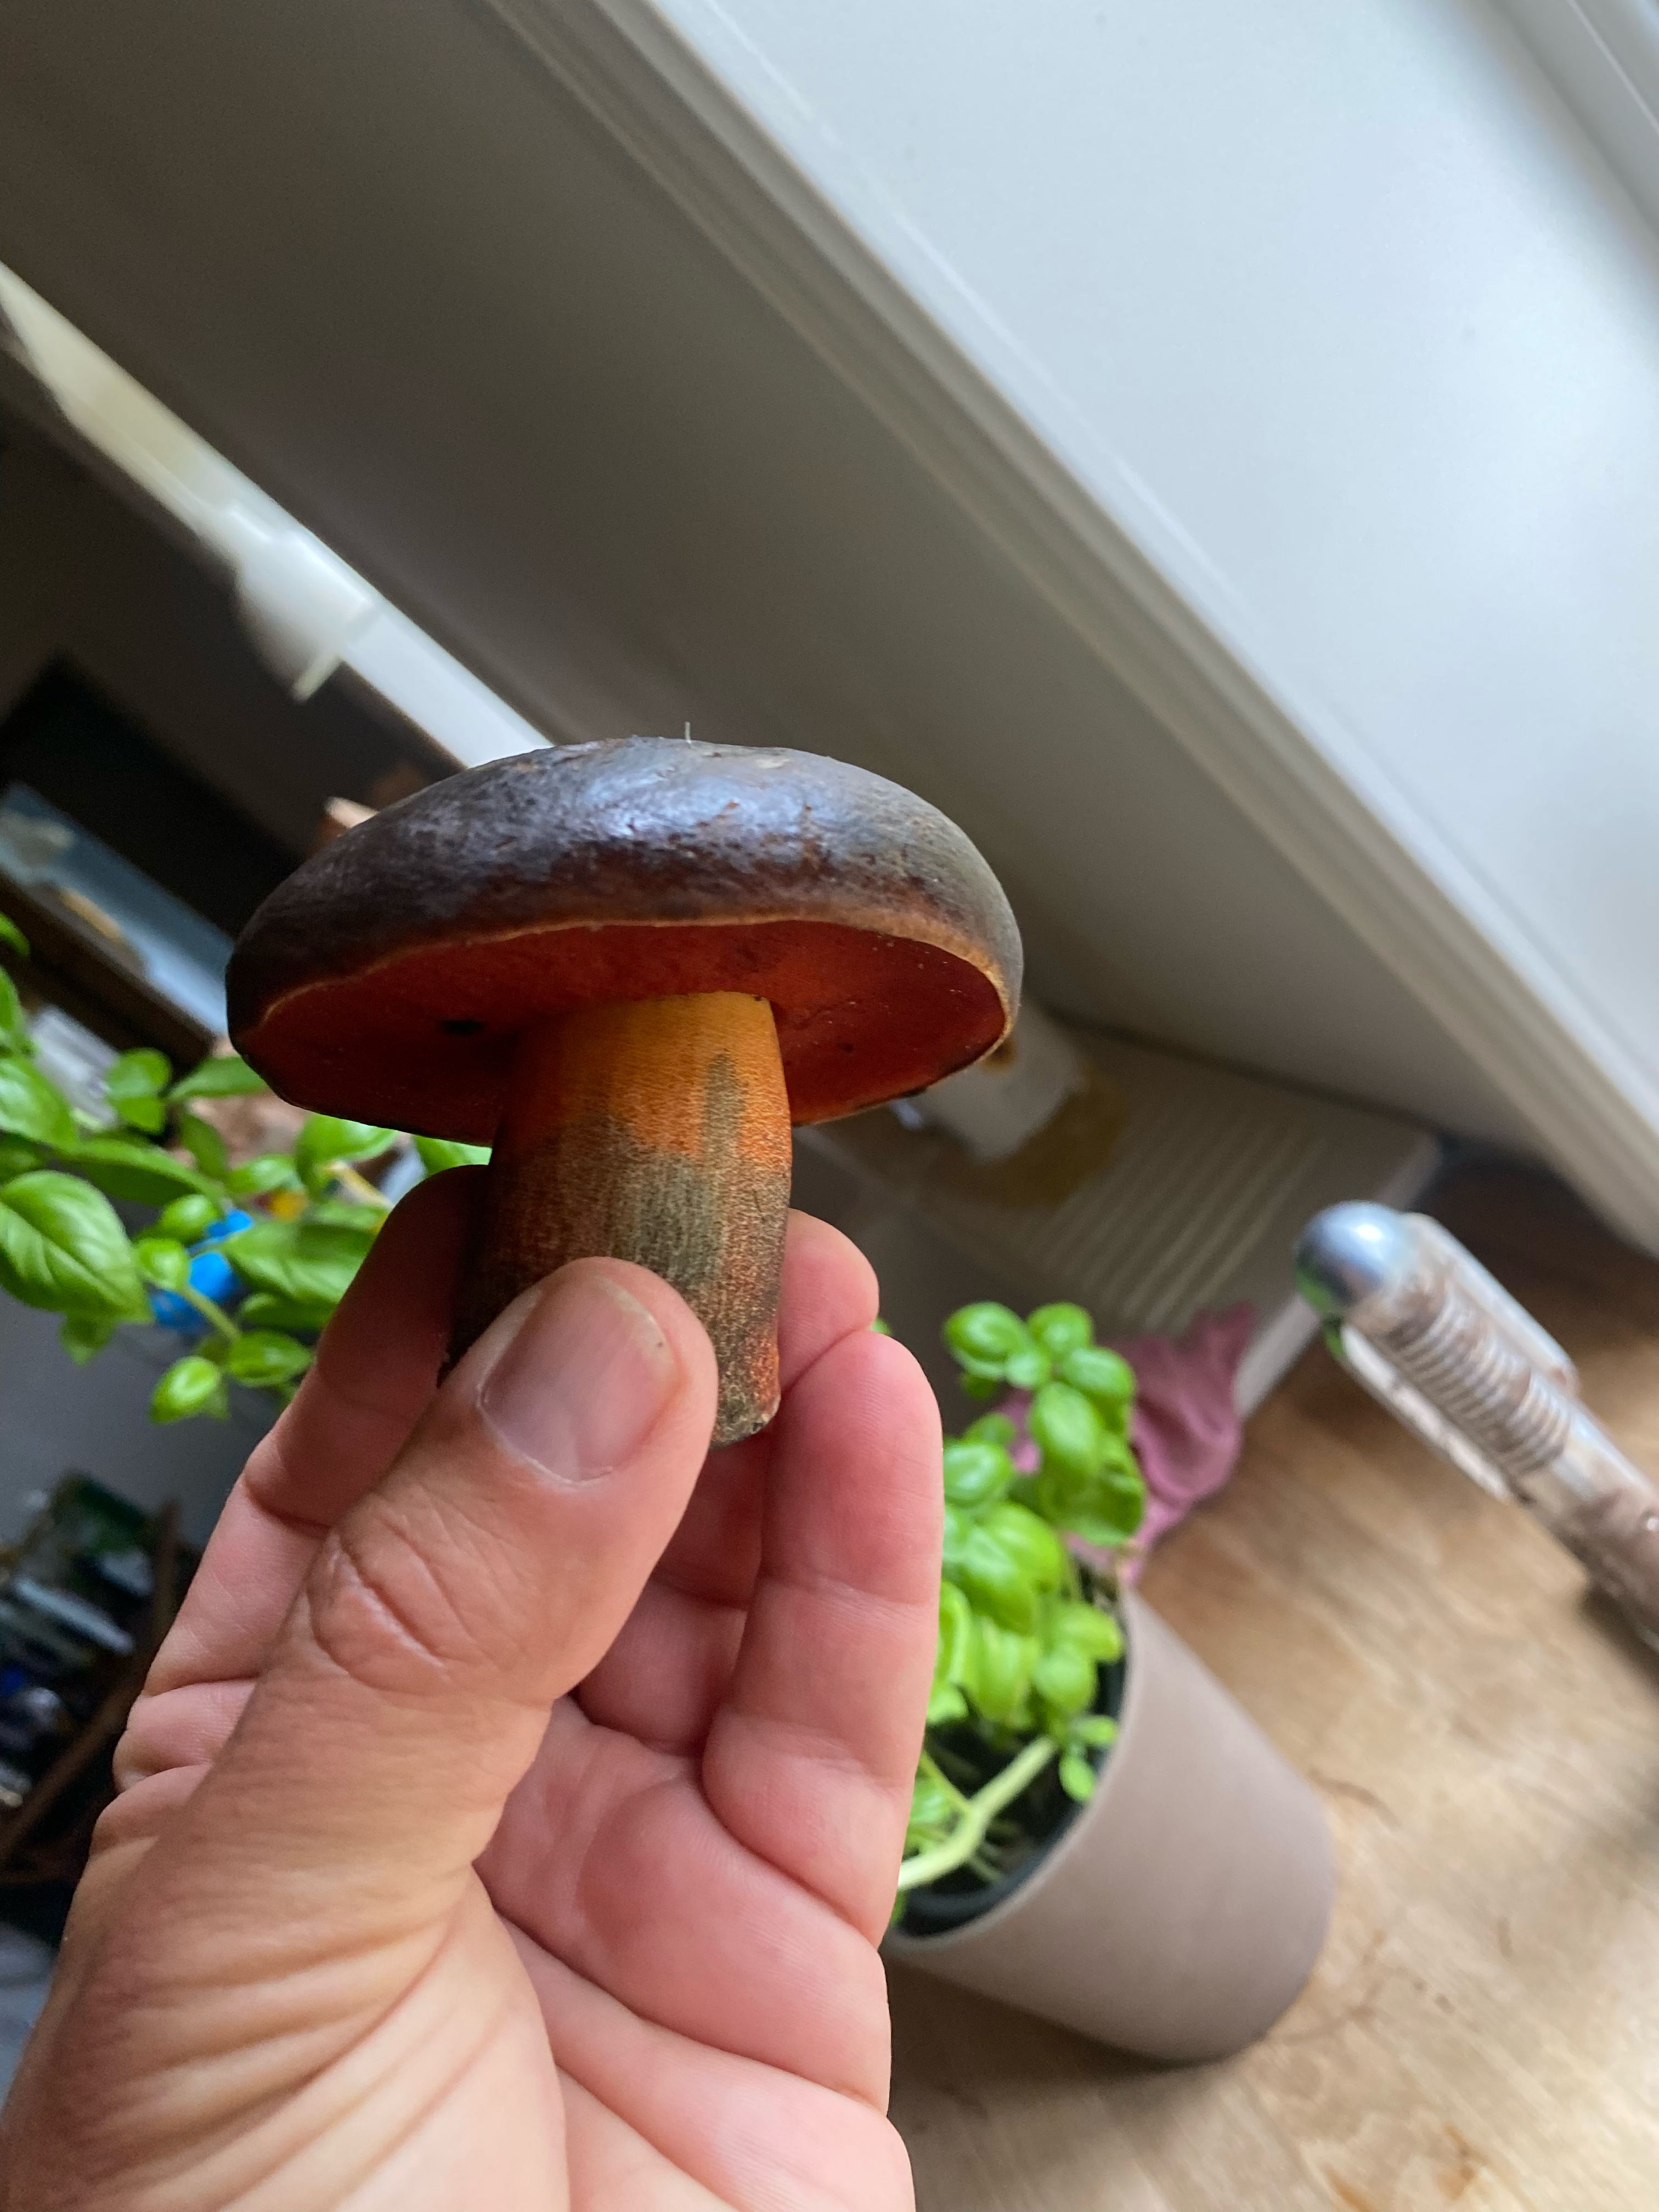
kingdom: Fungi
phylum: Basidiomycota
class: Agaricomycetes
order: Boletales
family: Boletaceae
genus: Neoboletus
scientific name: Neoboletus erythropus
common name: punktstokket indigorørhat
